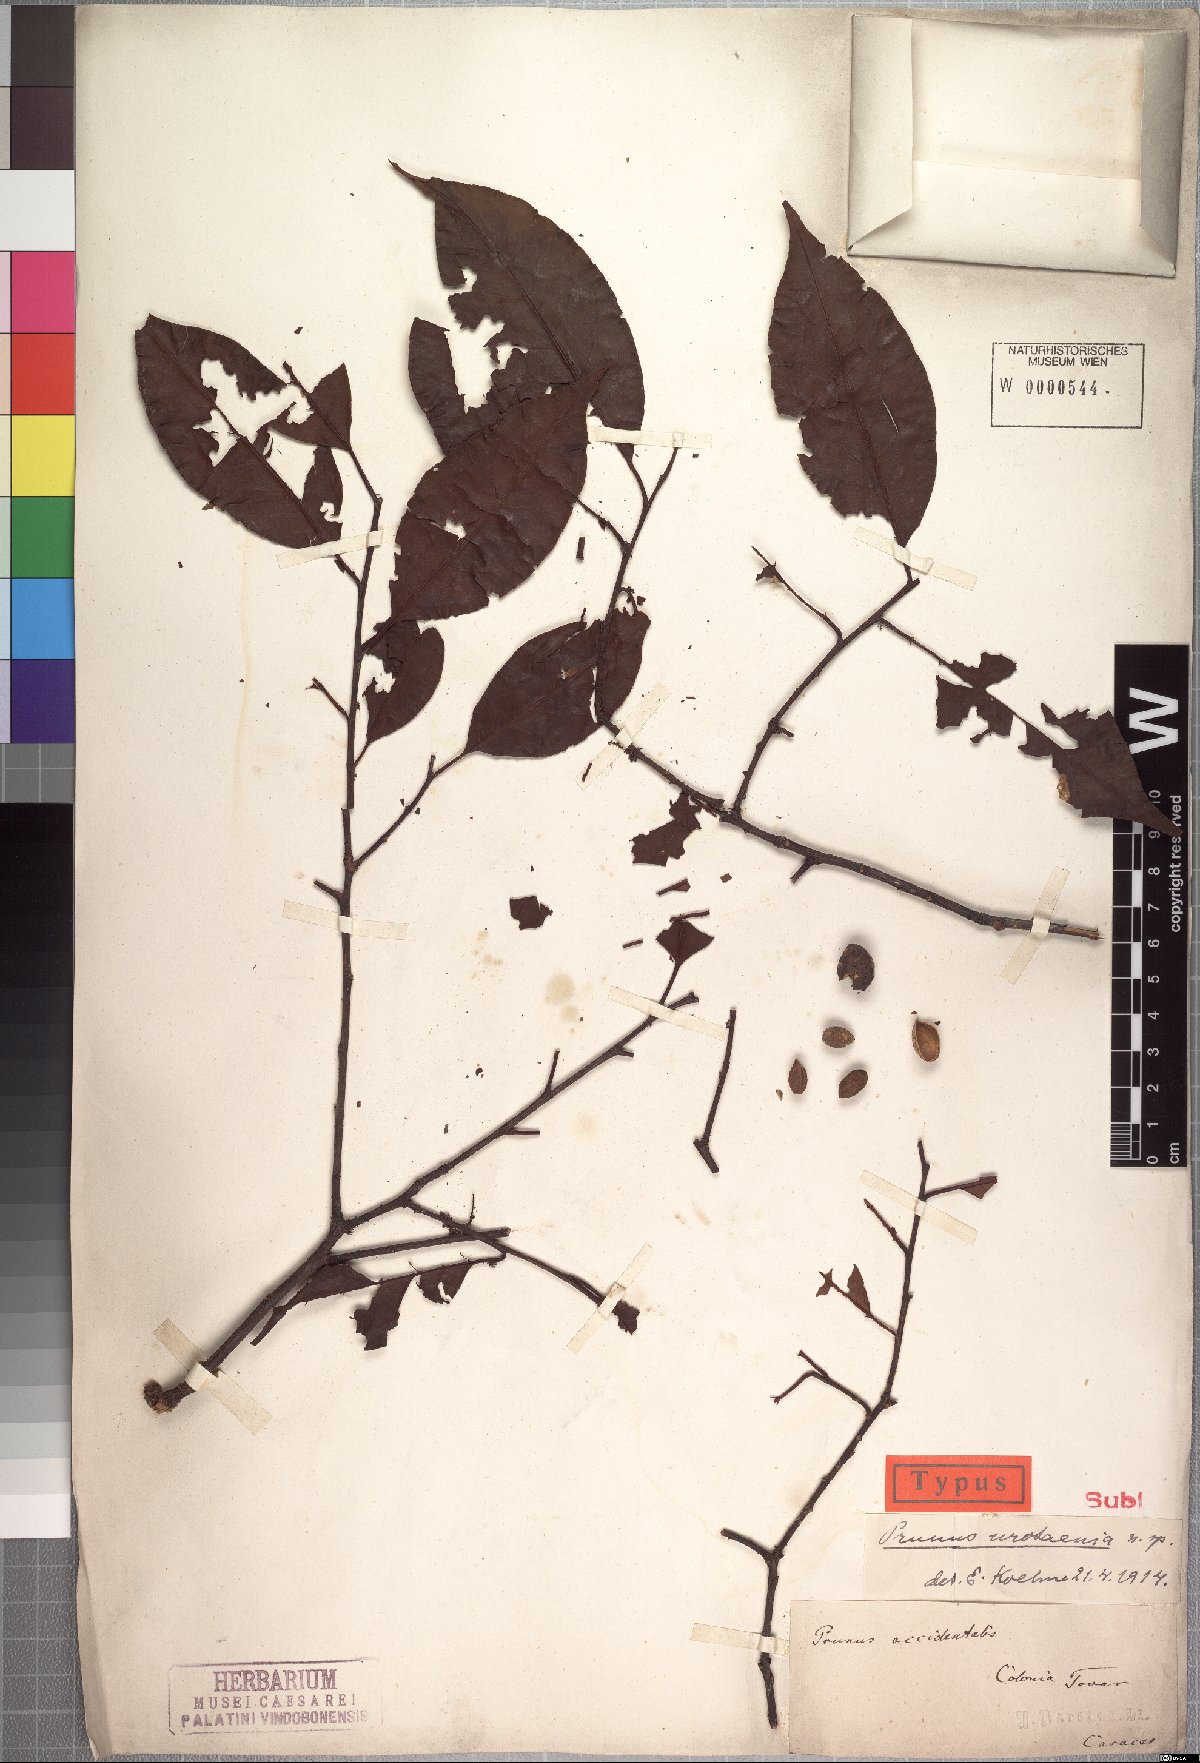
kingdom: Plantae
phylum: Tracheophyta
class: Magnoliopsida
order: Rosales
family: Rosaceae
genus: Prunus
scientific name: Prunus urotaenia
